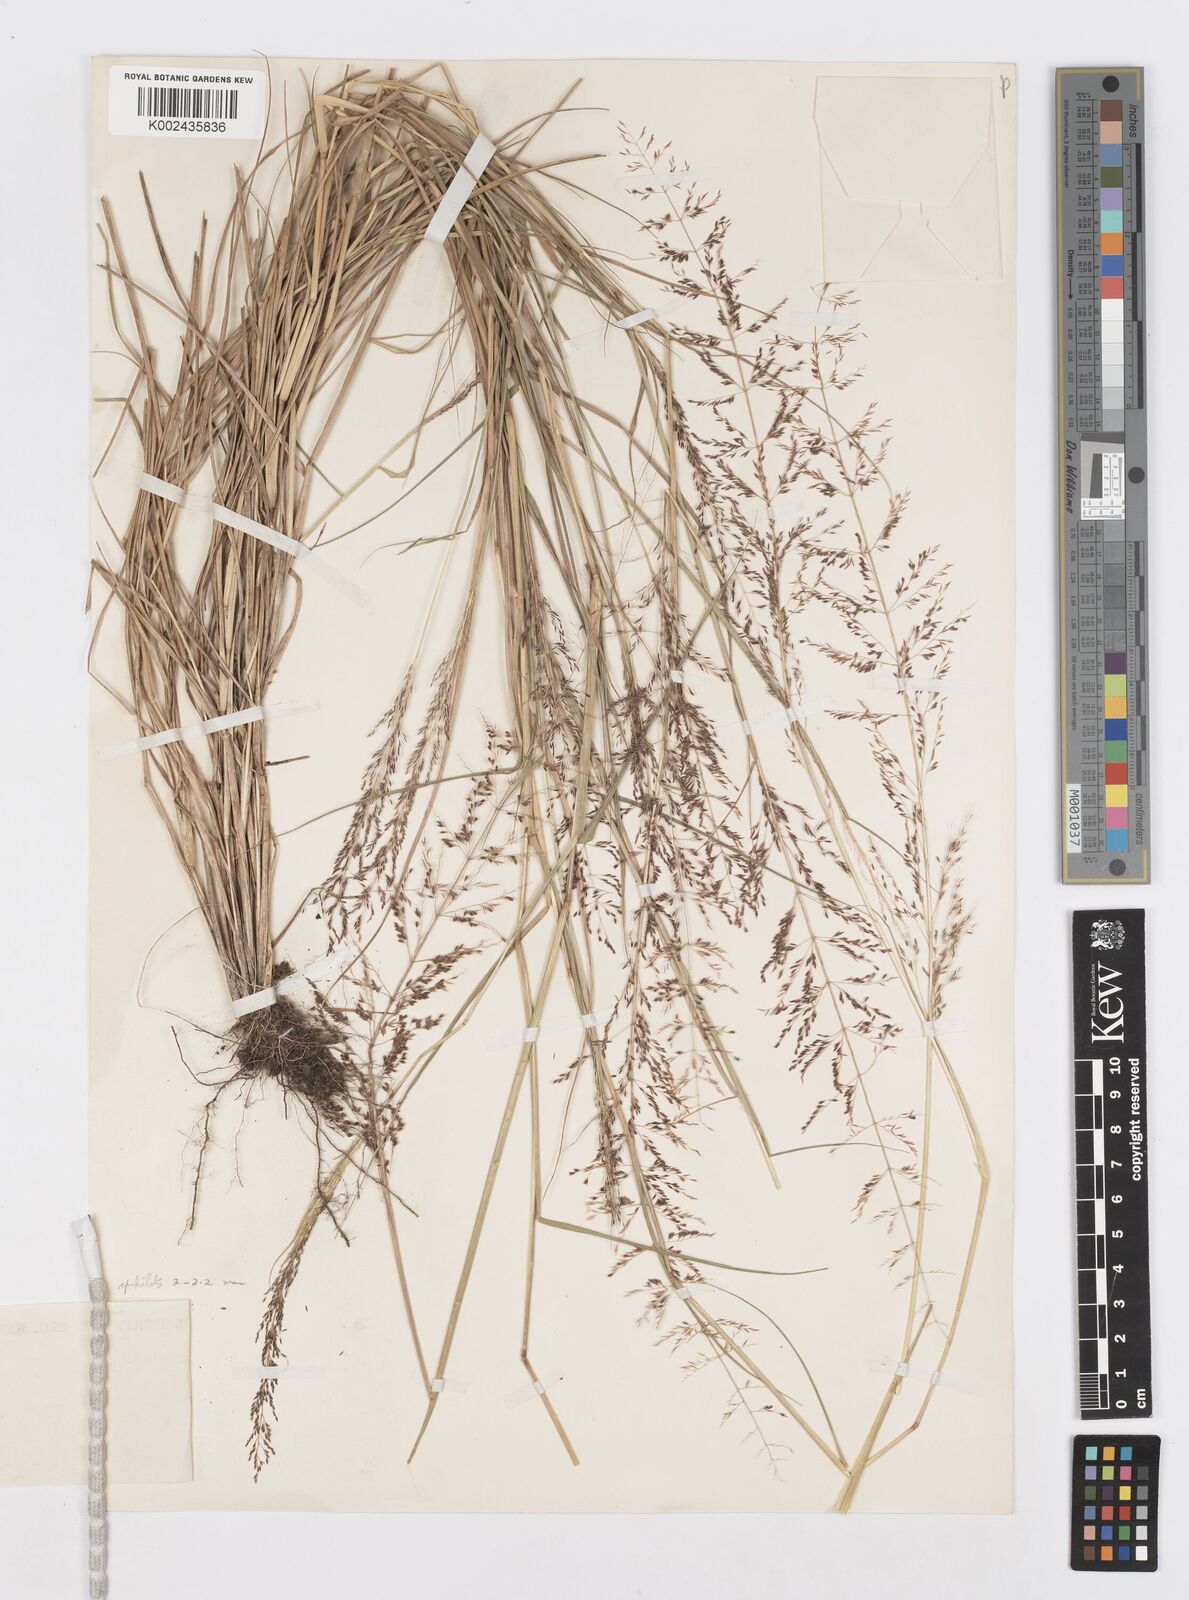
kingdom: Plantae
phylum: Tracheophyta
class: Liliopsida
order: Poales
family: Poaceae
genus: Sporobolus
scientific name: Sporobolus paniculatus
